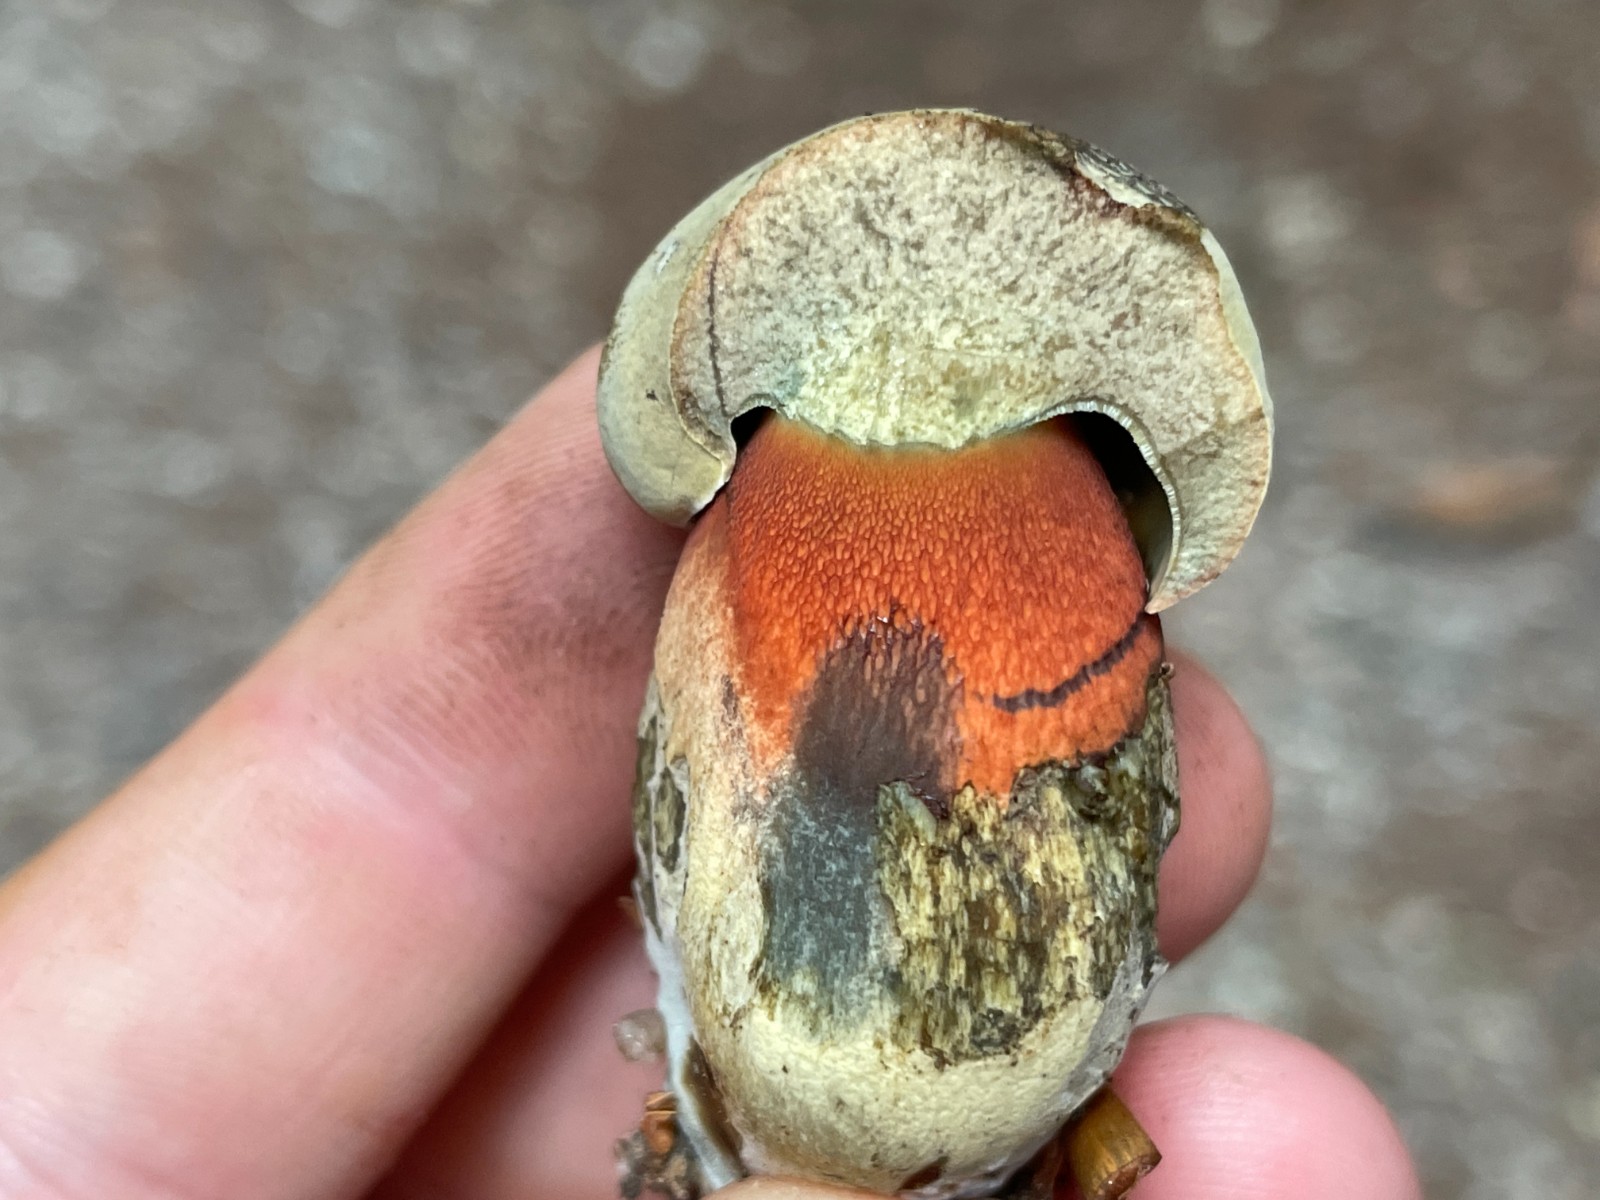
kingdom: Fungi
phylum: Basidiomycota
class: Agaricomycetes
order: Boletales
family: Boletaceae
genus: Suillellus
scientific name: Suillellus luridus
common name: netstokket indigorørhat
